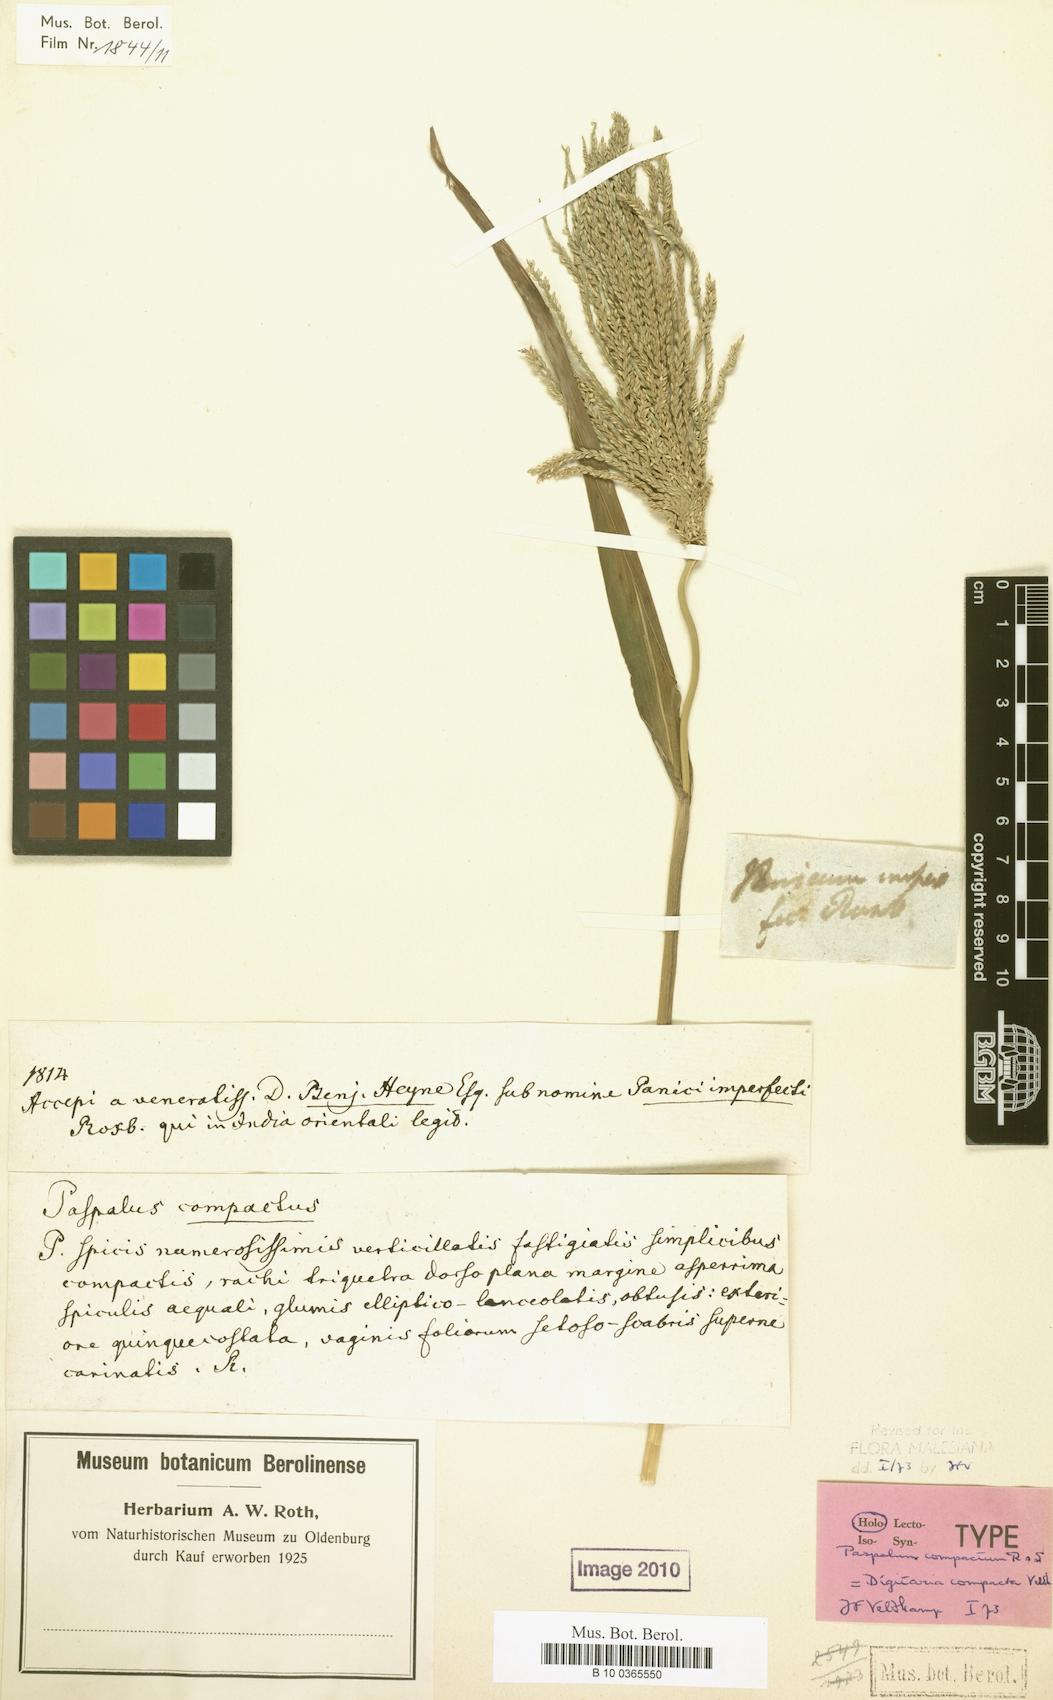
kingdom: Plantae
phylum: Tracheophyta
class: Liliopsida
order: Poales
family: Poaceae
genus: Digitaria
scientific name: Digitaria compacta
